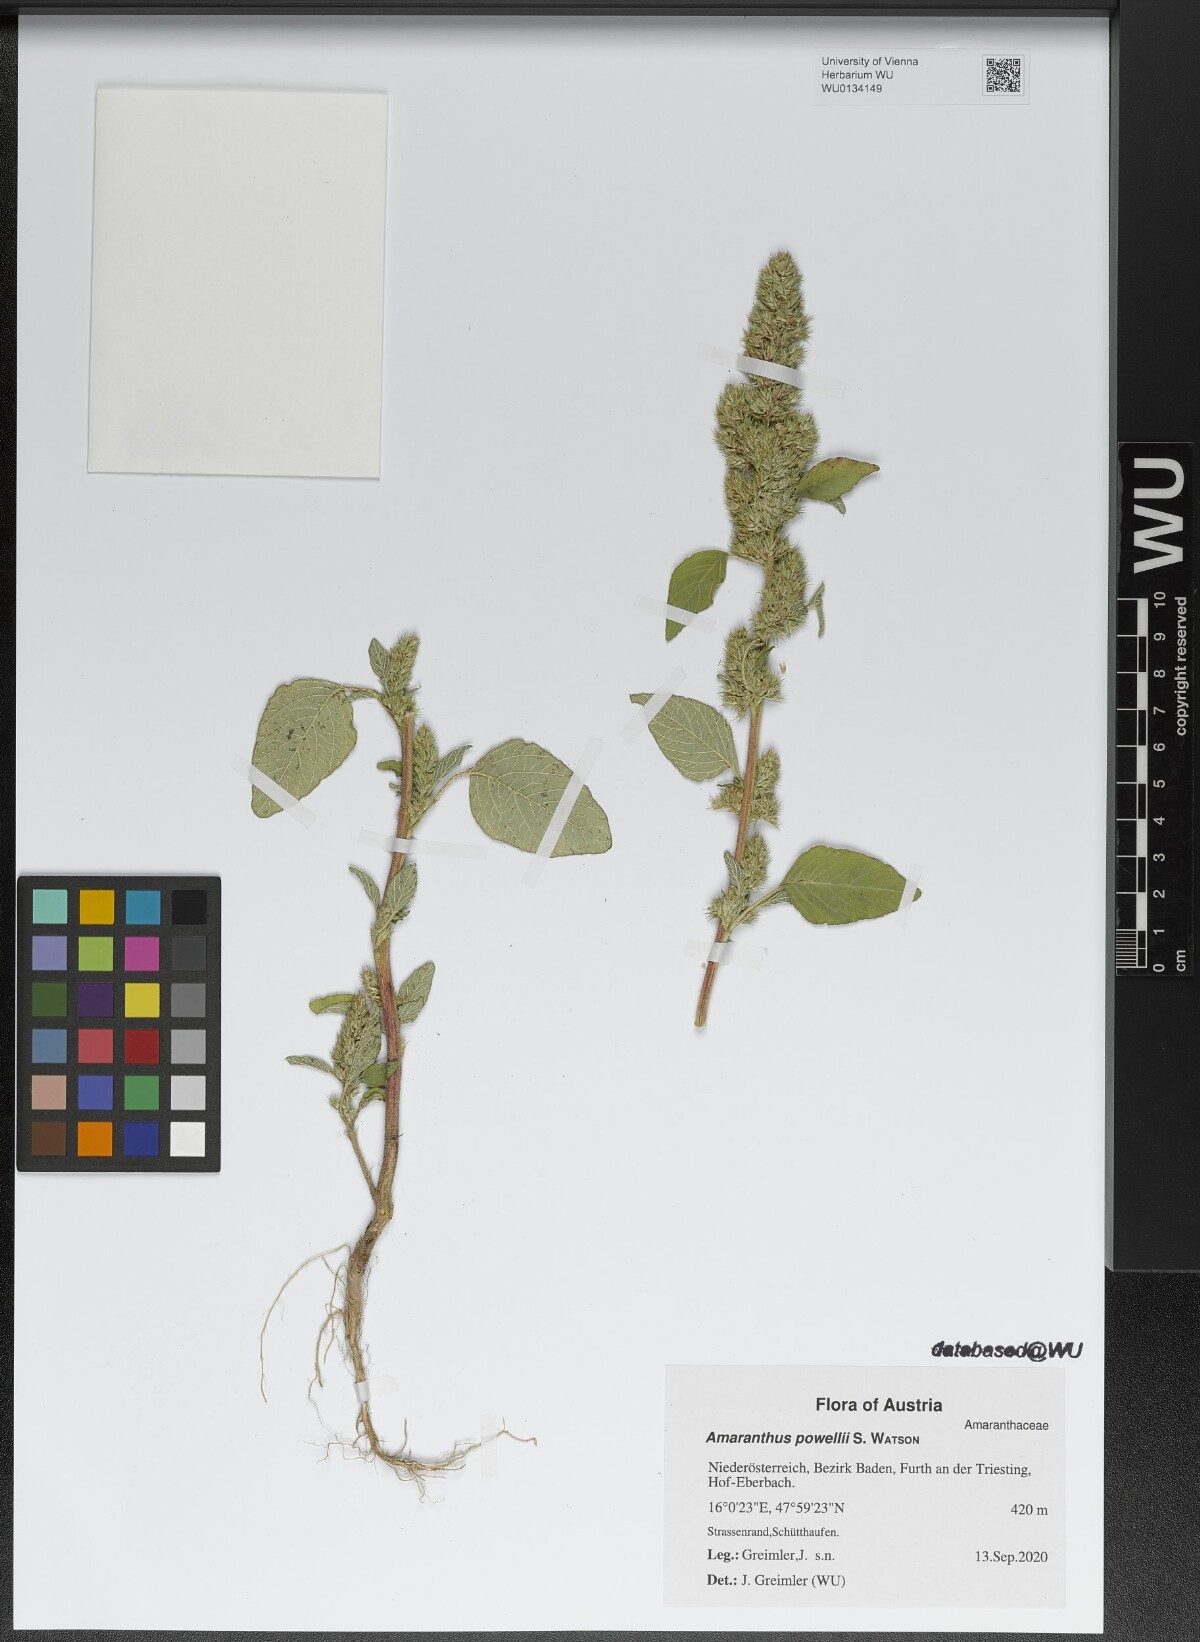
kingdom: Plantae
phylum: Tracheophyta
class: Magnoliopsida
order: Caryophyllales
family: Amaranthaceae
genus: Amaranthus
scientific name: Amaranthus powellii
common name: Powell's amaranth
